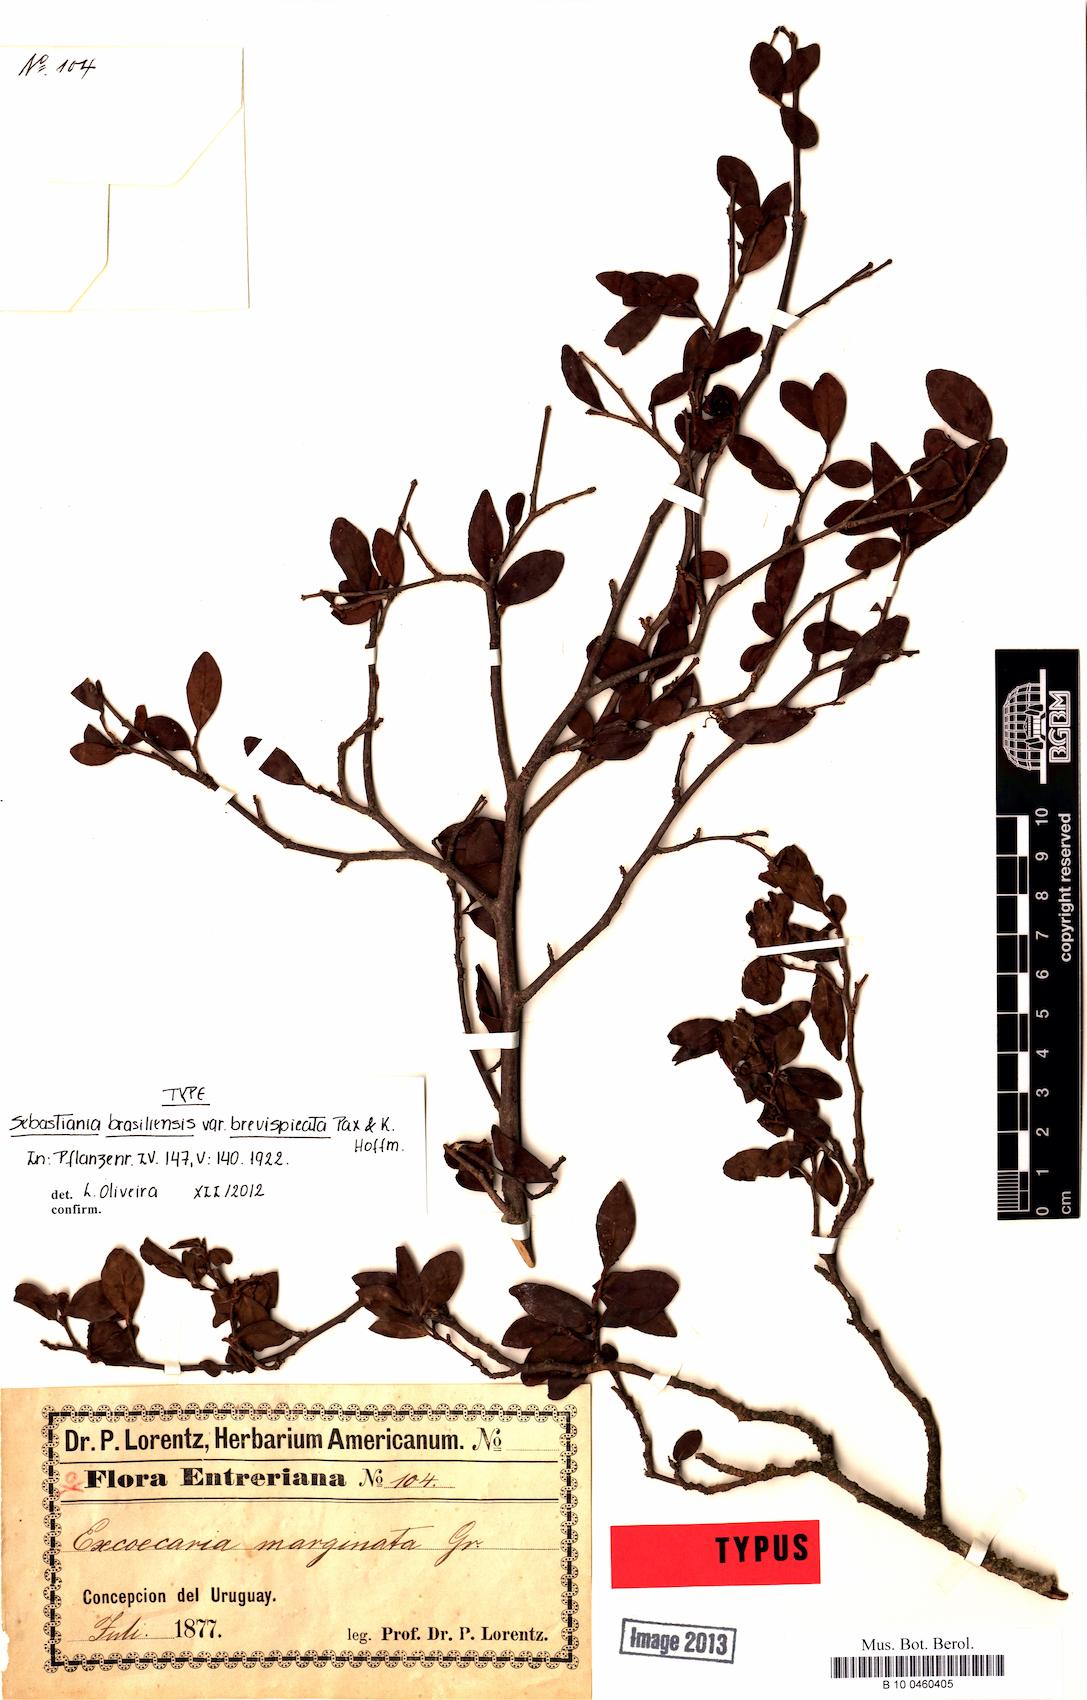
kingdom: Plantae
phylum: Tracheophyta
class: Magnoliopsida
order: Malpighiales
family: Euphorbiaceae
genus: Sebastiania
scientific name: Sebastiania brasiliensis
